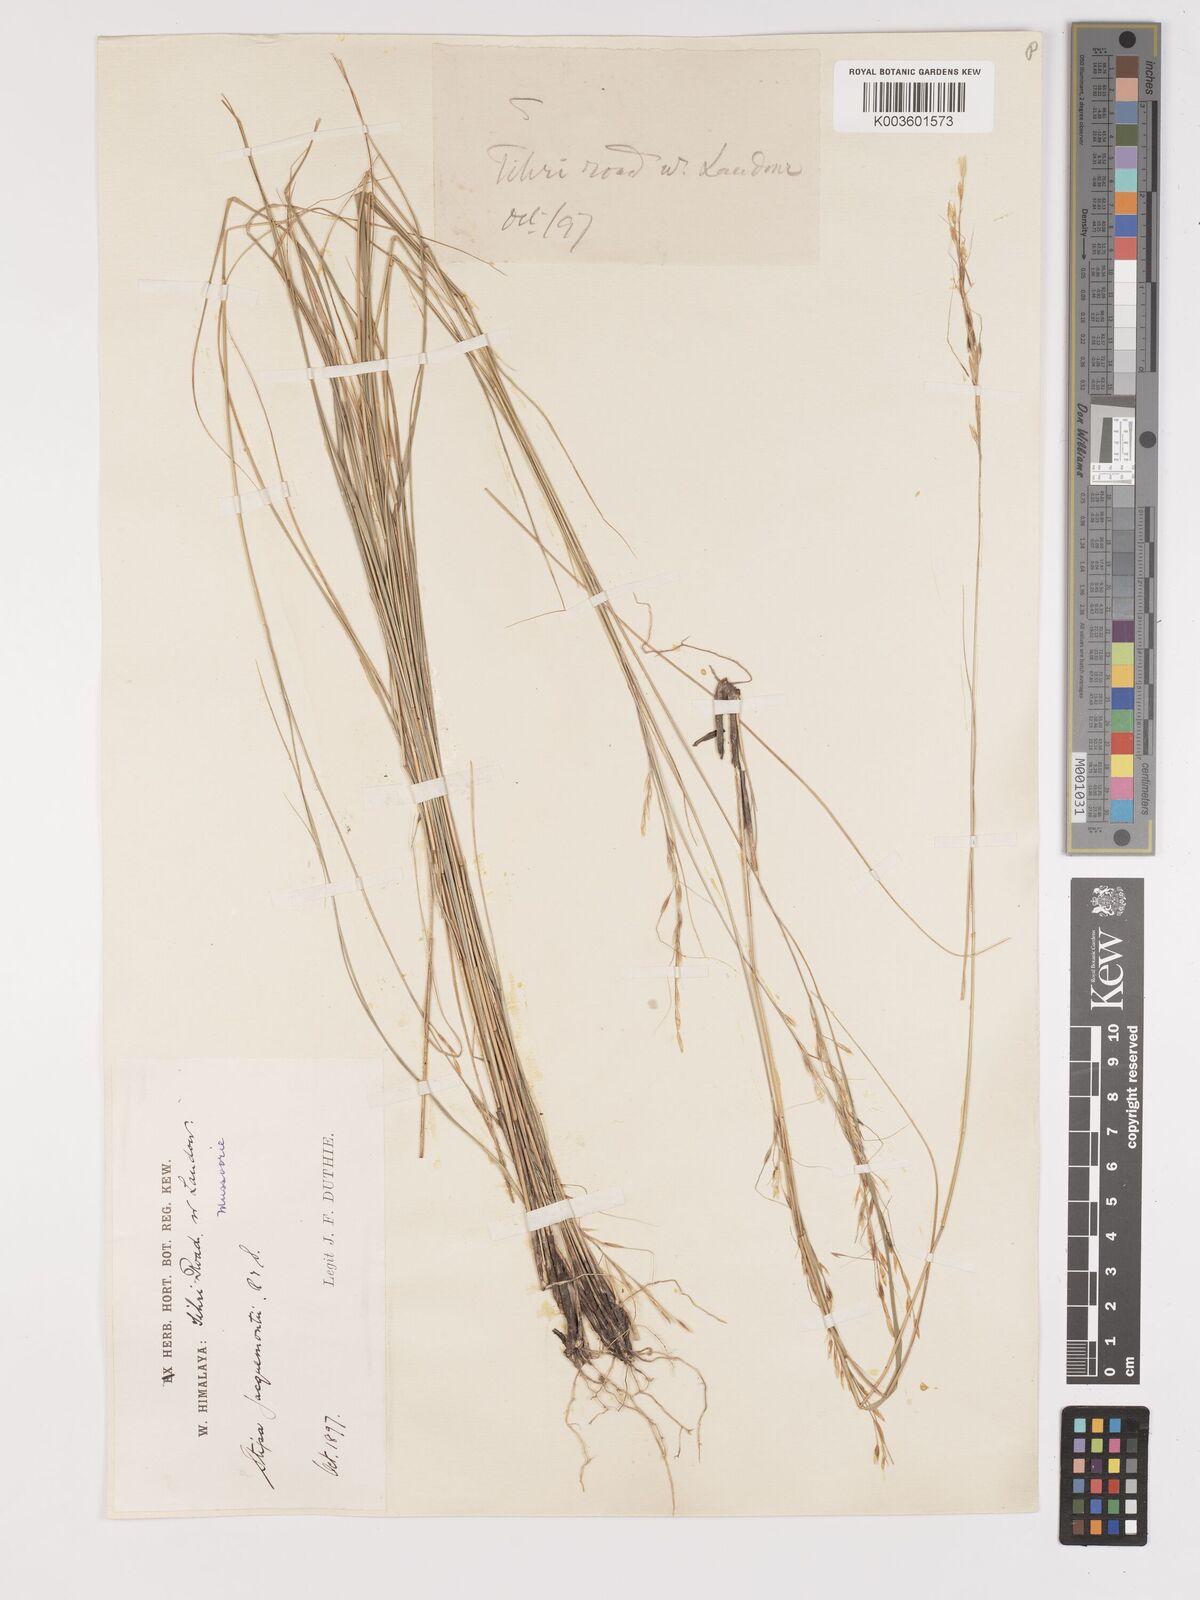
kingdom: Plantae
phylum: Tracheophyta
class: Liliopsida
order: Poales
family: Poaceae
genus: Achnatherum
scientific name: Achnatherum jacquemontii
